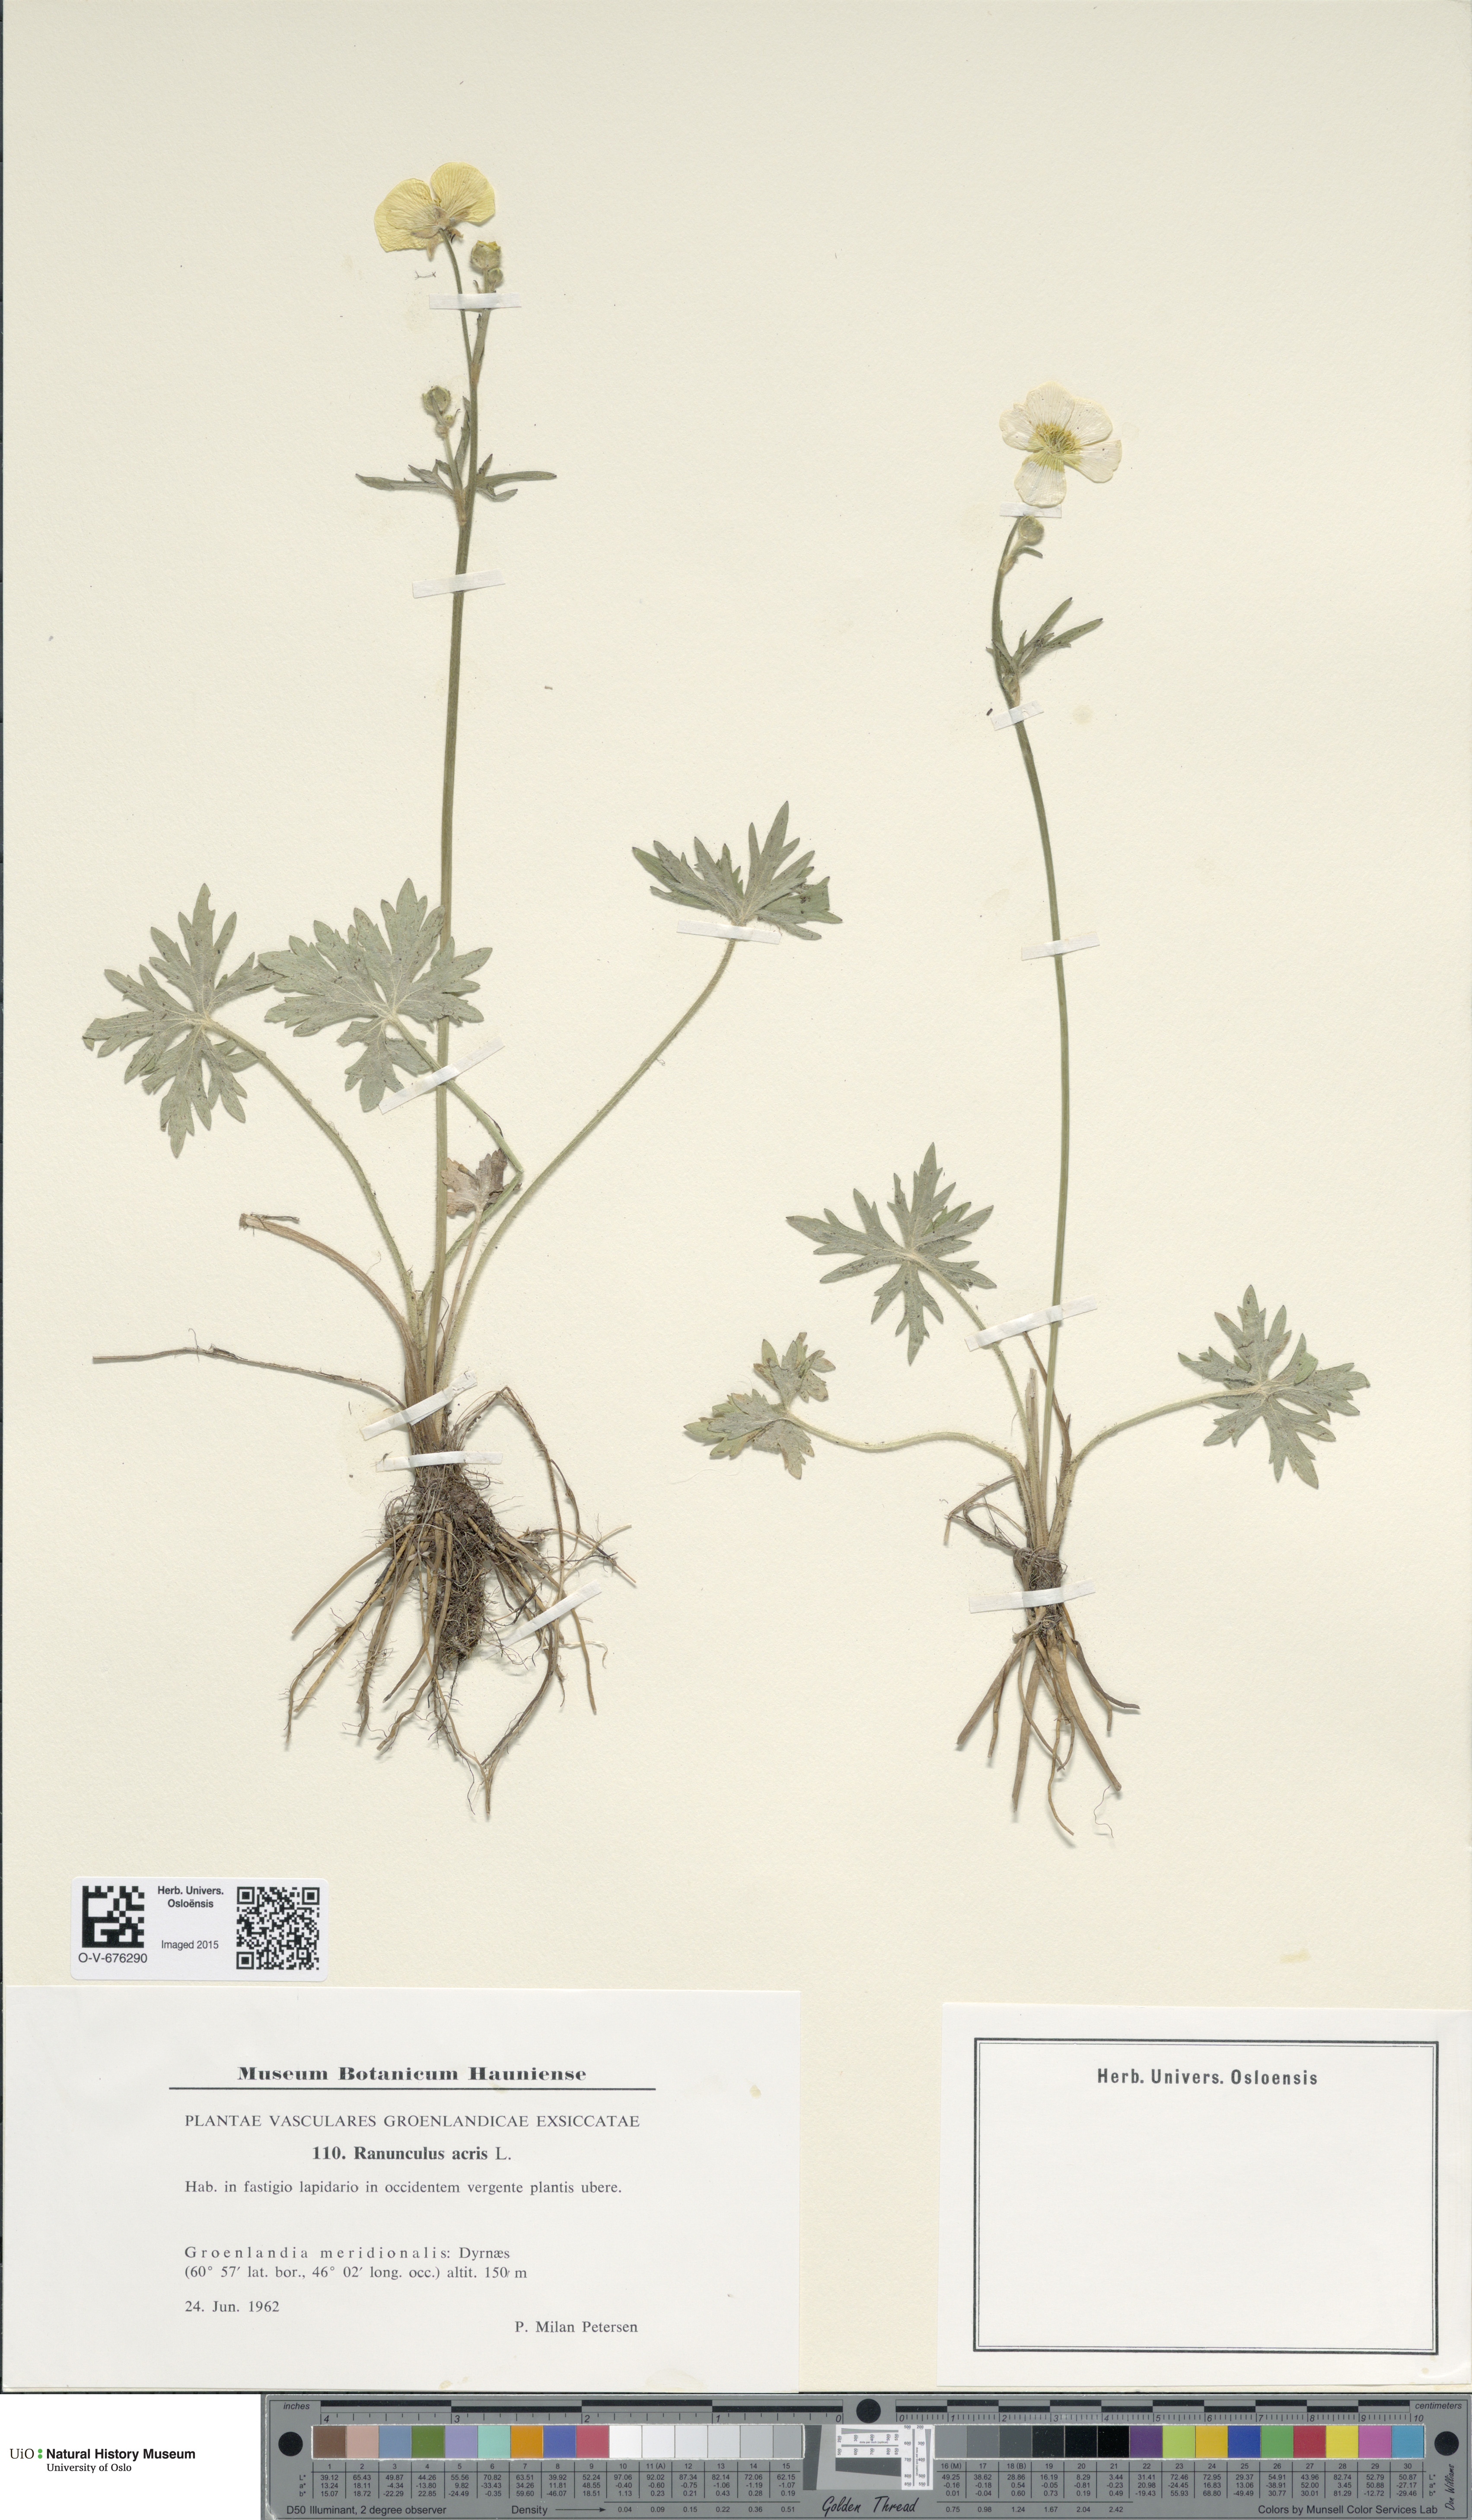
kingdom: Plantae
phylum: Tracheophyta
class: Magnoliopsida
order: Ranunculales
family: Ranunculaceae
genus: Ranunculus
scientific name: Ranunculus acris
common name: Meadow buttercup
